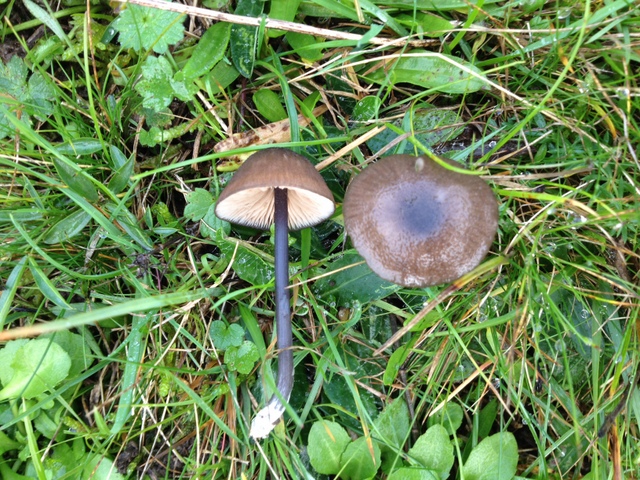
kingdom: Fungi
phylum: Basidiomycota
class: Agaricomycetes
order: Agaricales
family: Entolomataceae
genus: Entoloma
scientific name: Entoloma poliopus
